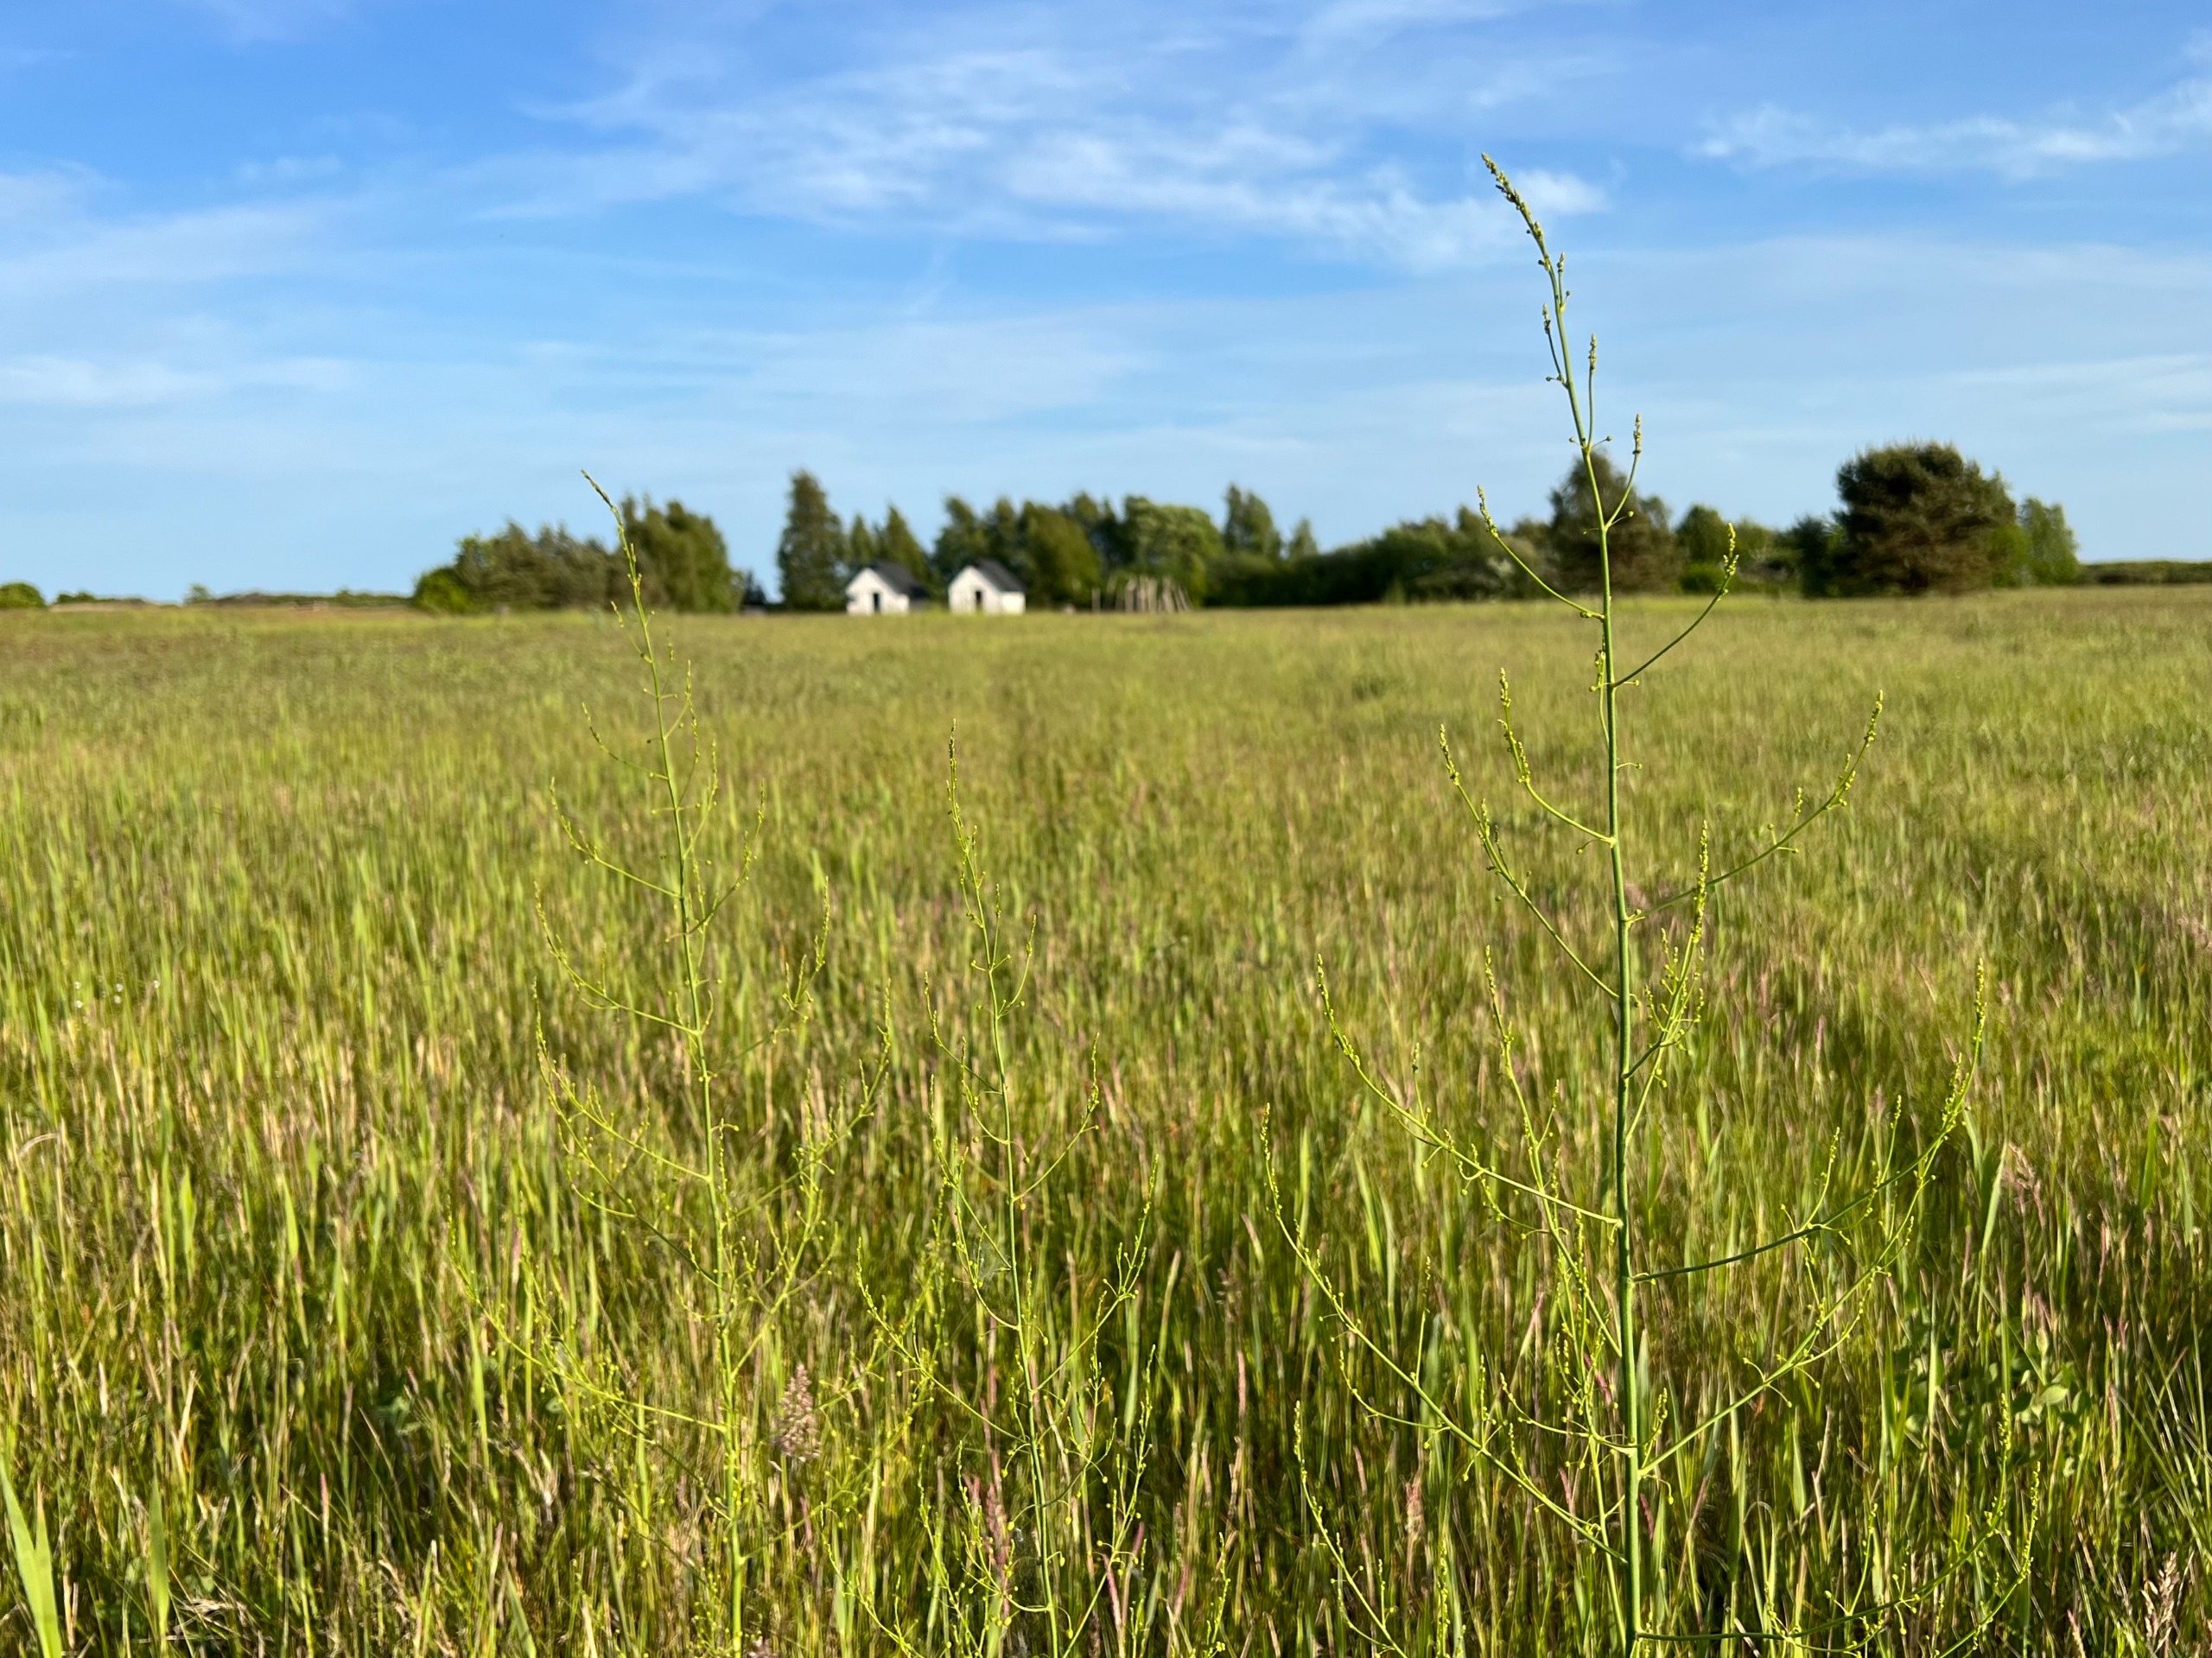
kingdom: Plantae
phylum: Tracheophyta
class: Liliopsida
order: Asparagales
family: Asparagaceae
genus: Asparagus
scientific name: Asparagus officinalis
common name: Asparges
